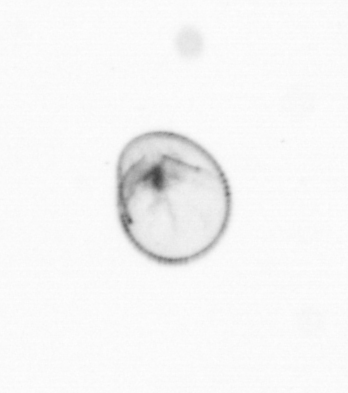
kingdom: Chromista
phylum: Myzozoa
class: Dinophyceae
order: Noctilucales
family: Noctilucaceae
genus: Noctiluca
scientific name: Noctiluca scintillans
